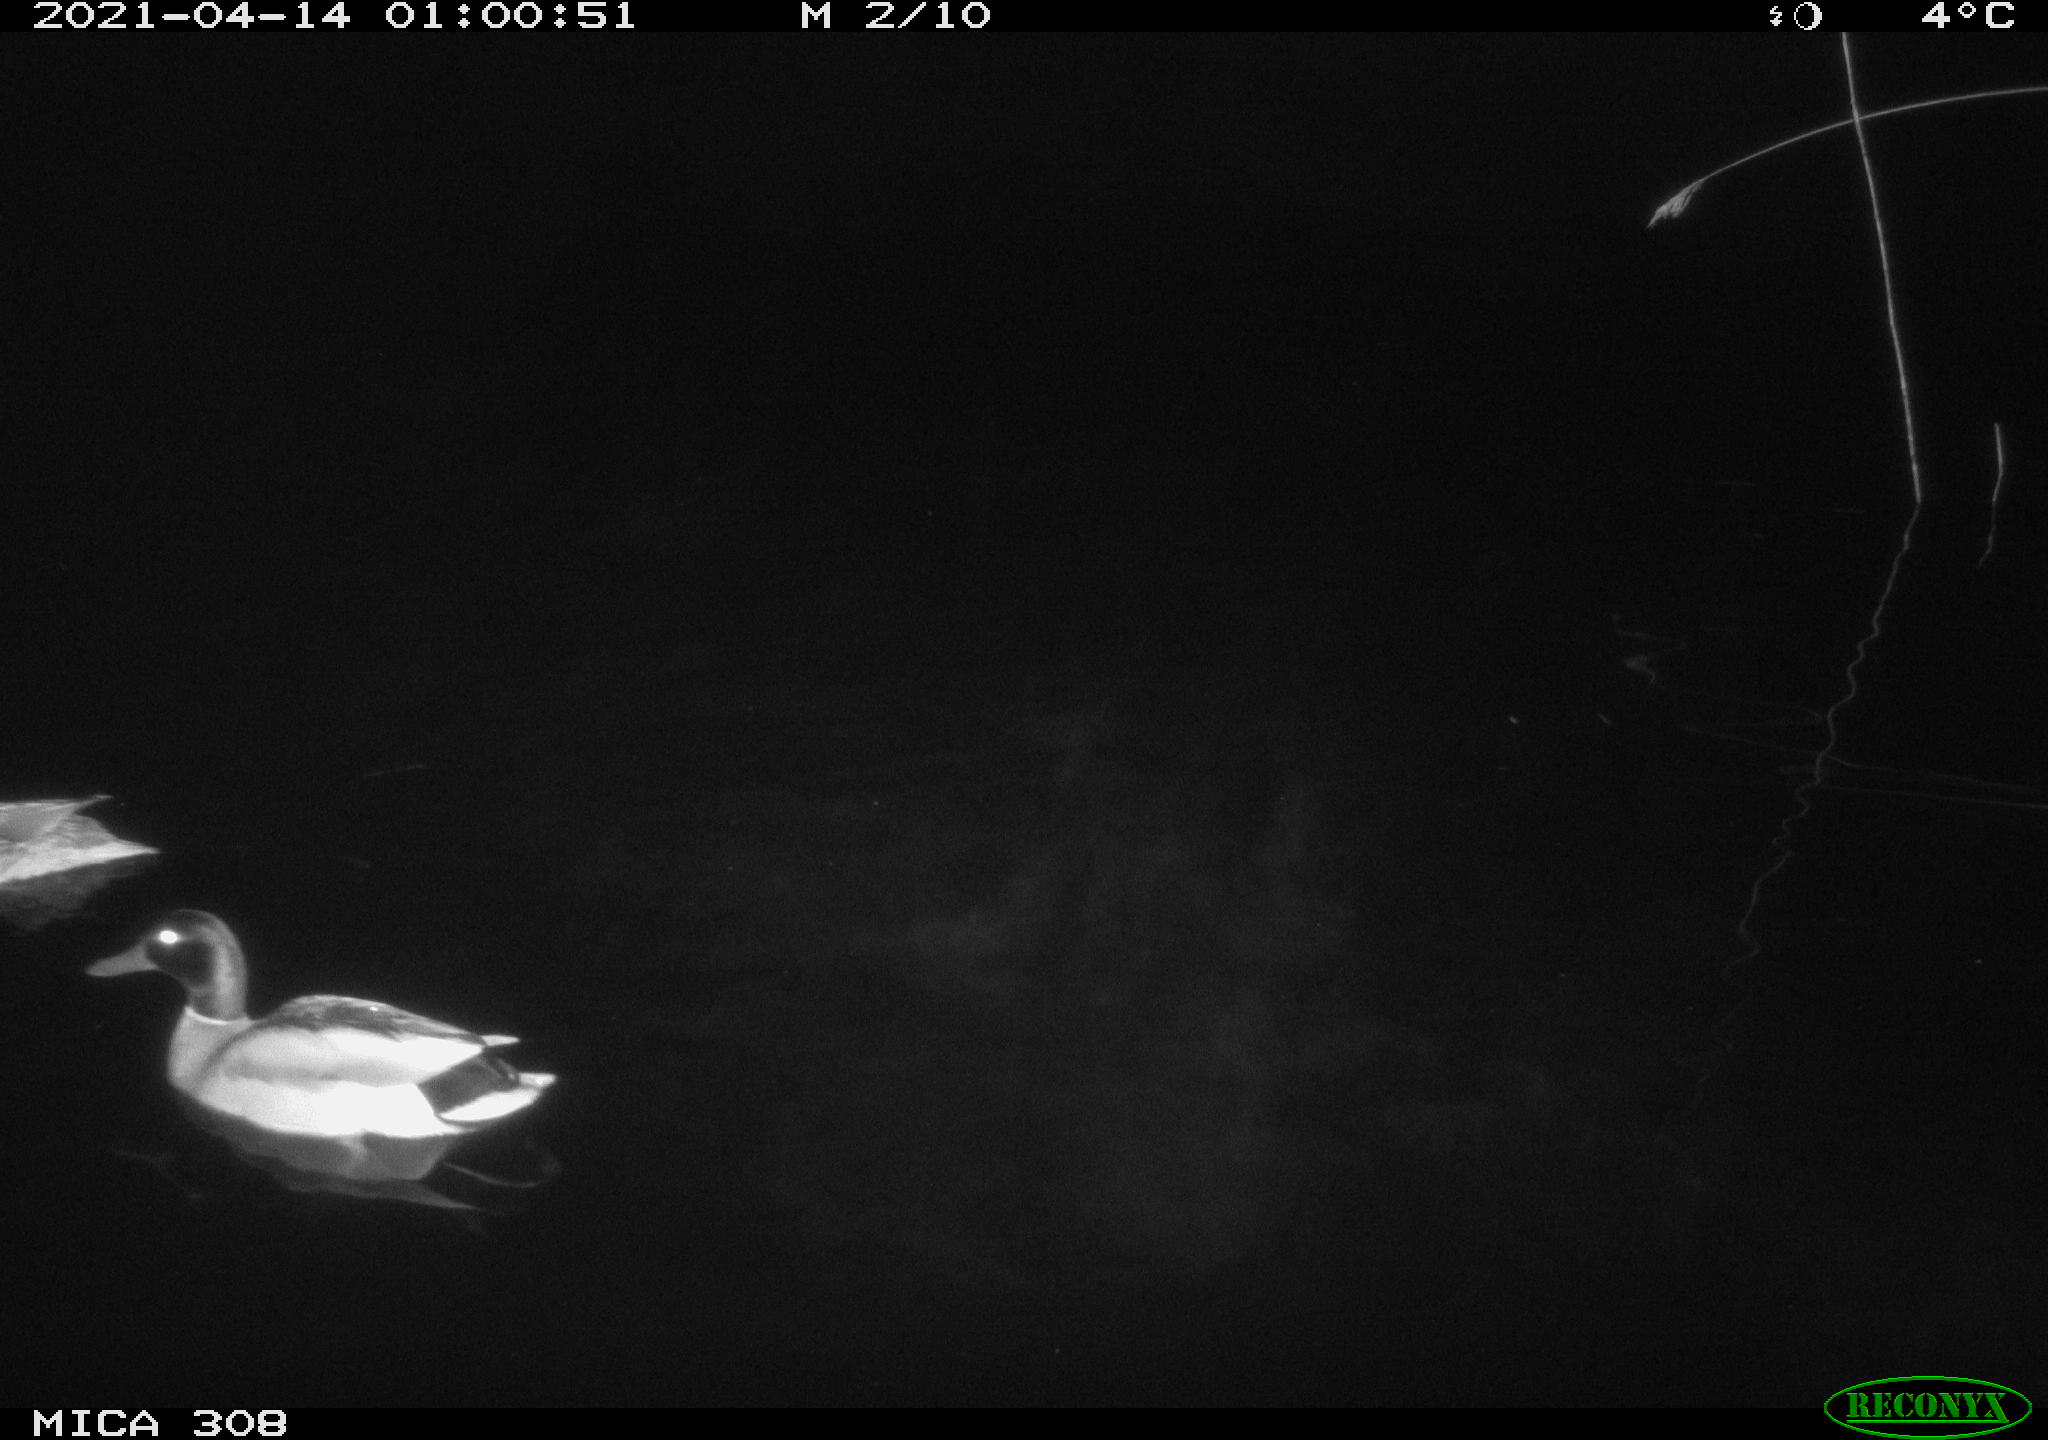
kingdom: Animalia
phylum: Chordata
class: Aves
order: Anseriformes
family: Anatidae
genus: Anas
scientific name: Anas platyrhynchos
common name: Mallard
